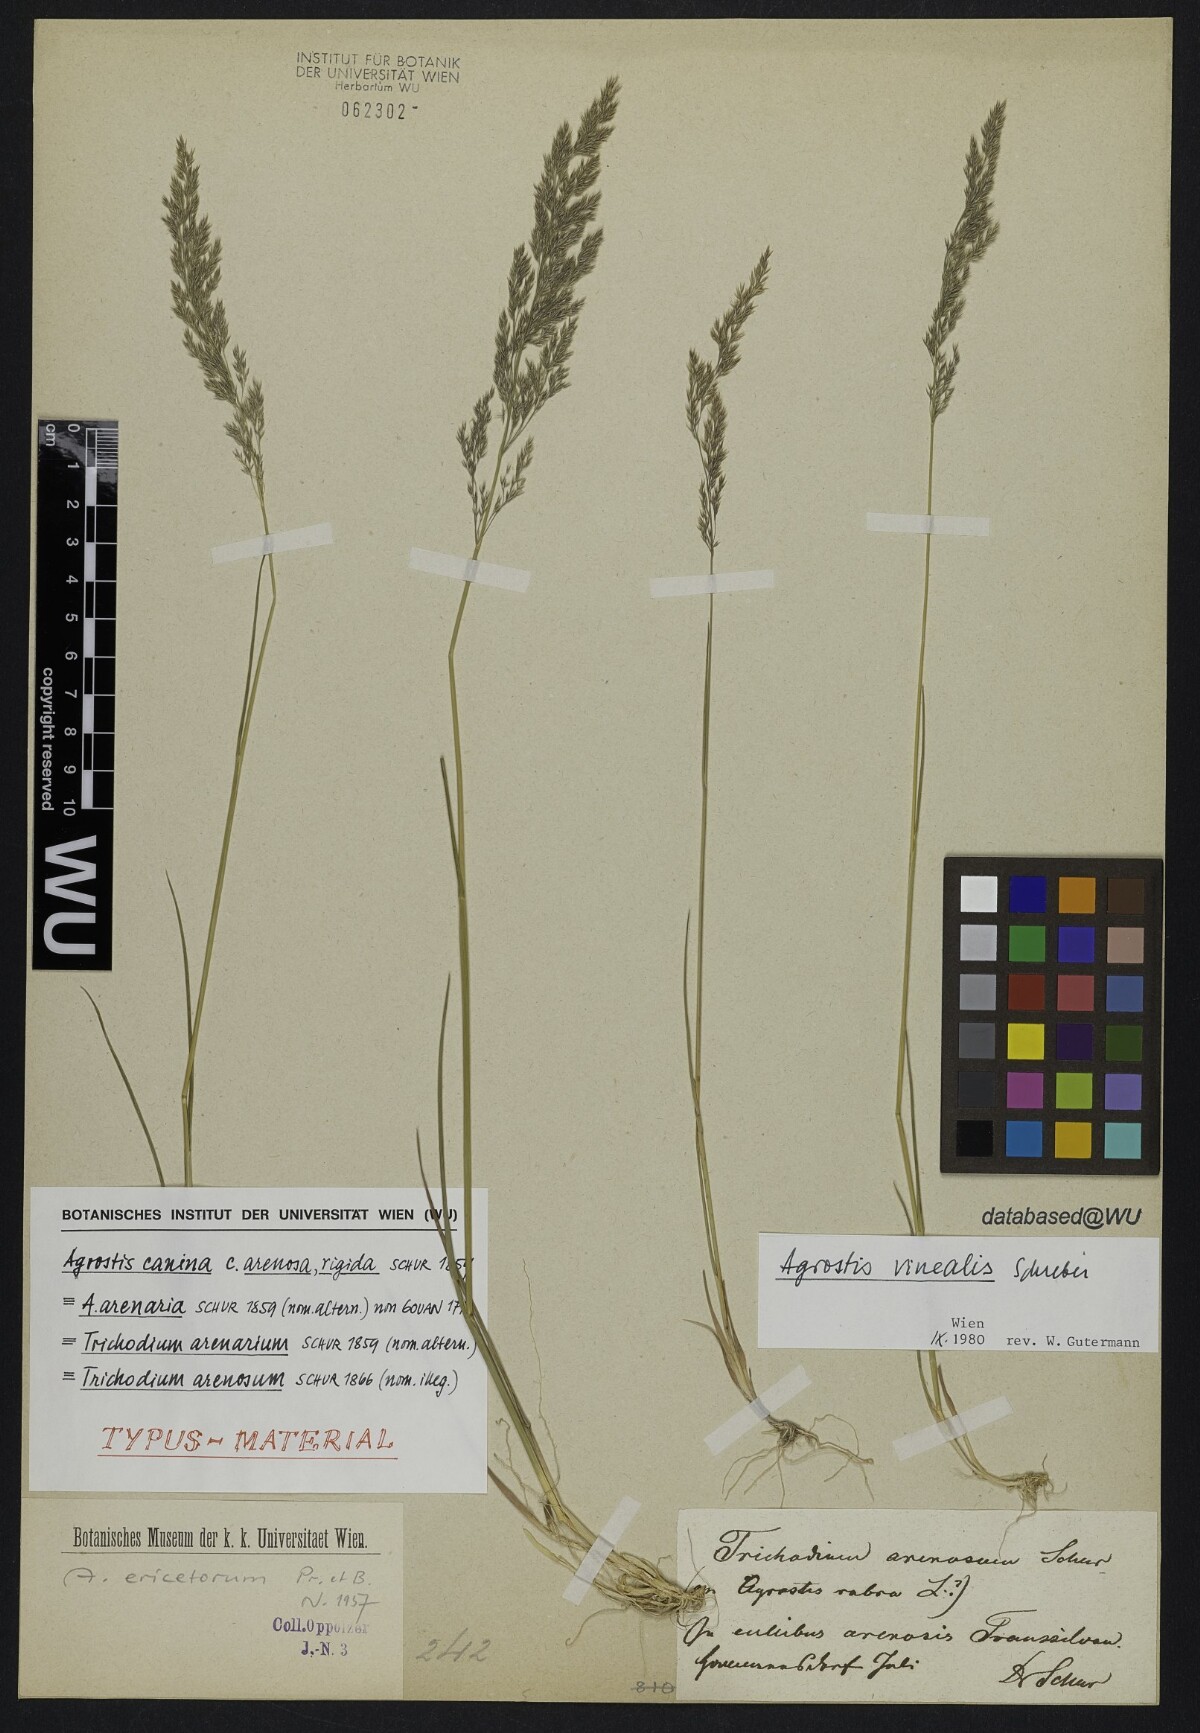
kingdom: Plantae
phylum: Tracheophyta
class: Liliopsida
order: Poales
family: Poaceae
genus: Agrostis
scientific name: Agrostis canina
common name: Velvet bent
